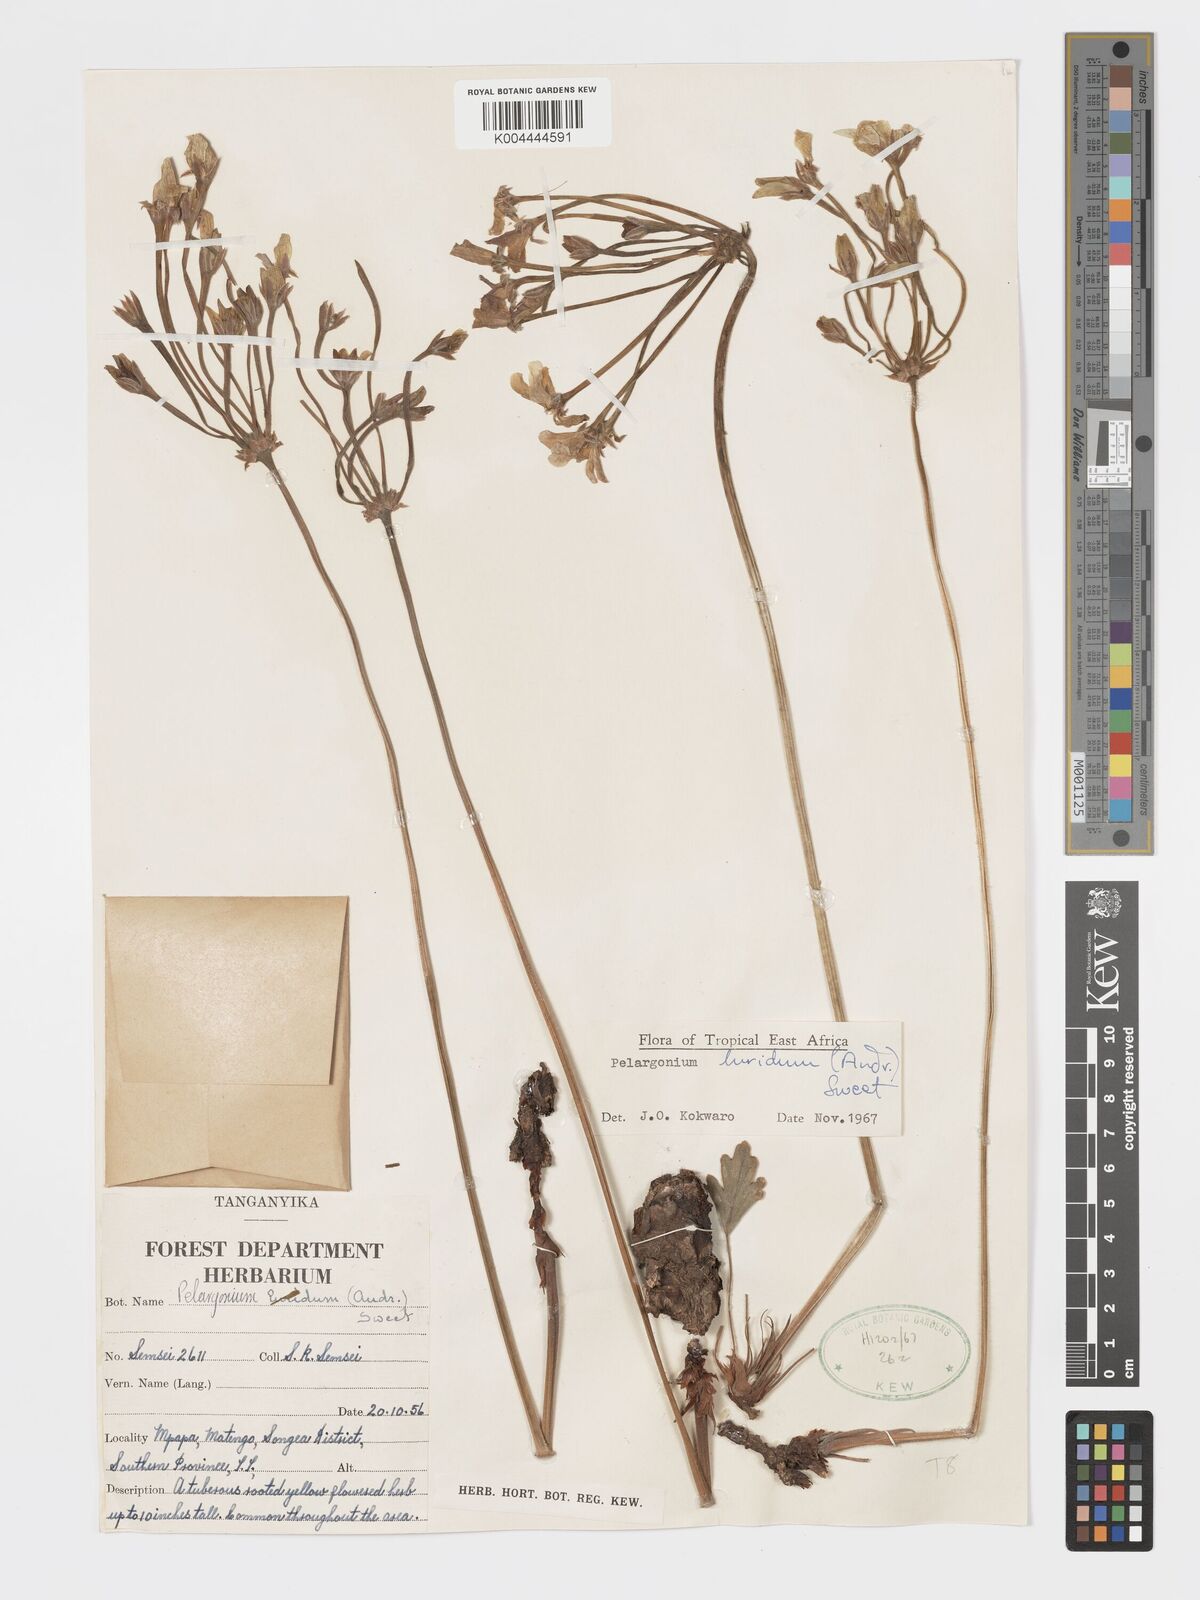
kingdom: Plantae
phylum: Tracheophyta
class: Magnoliopsida
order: Geraniales
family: Geraniaceae
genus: Pelargonium
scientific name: Pelargonium luridum
